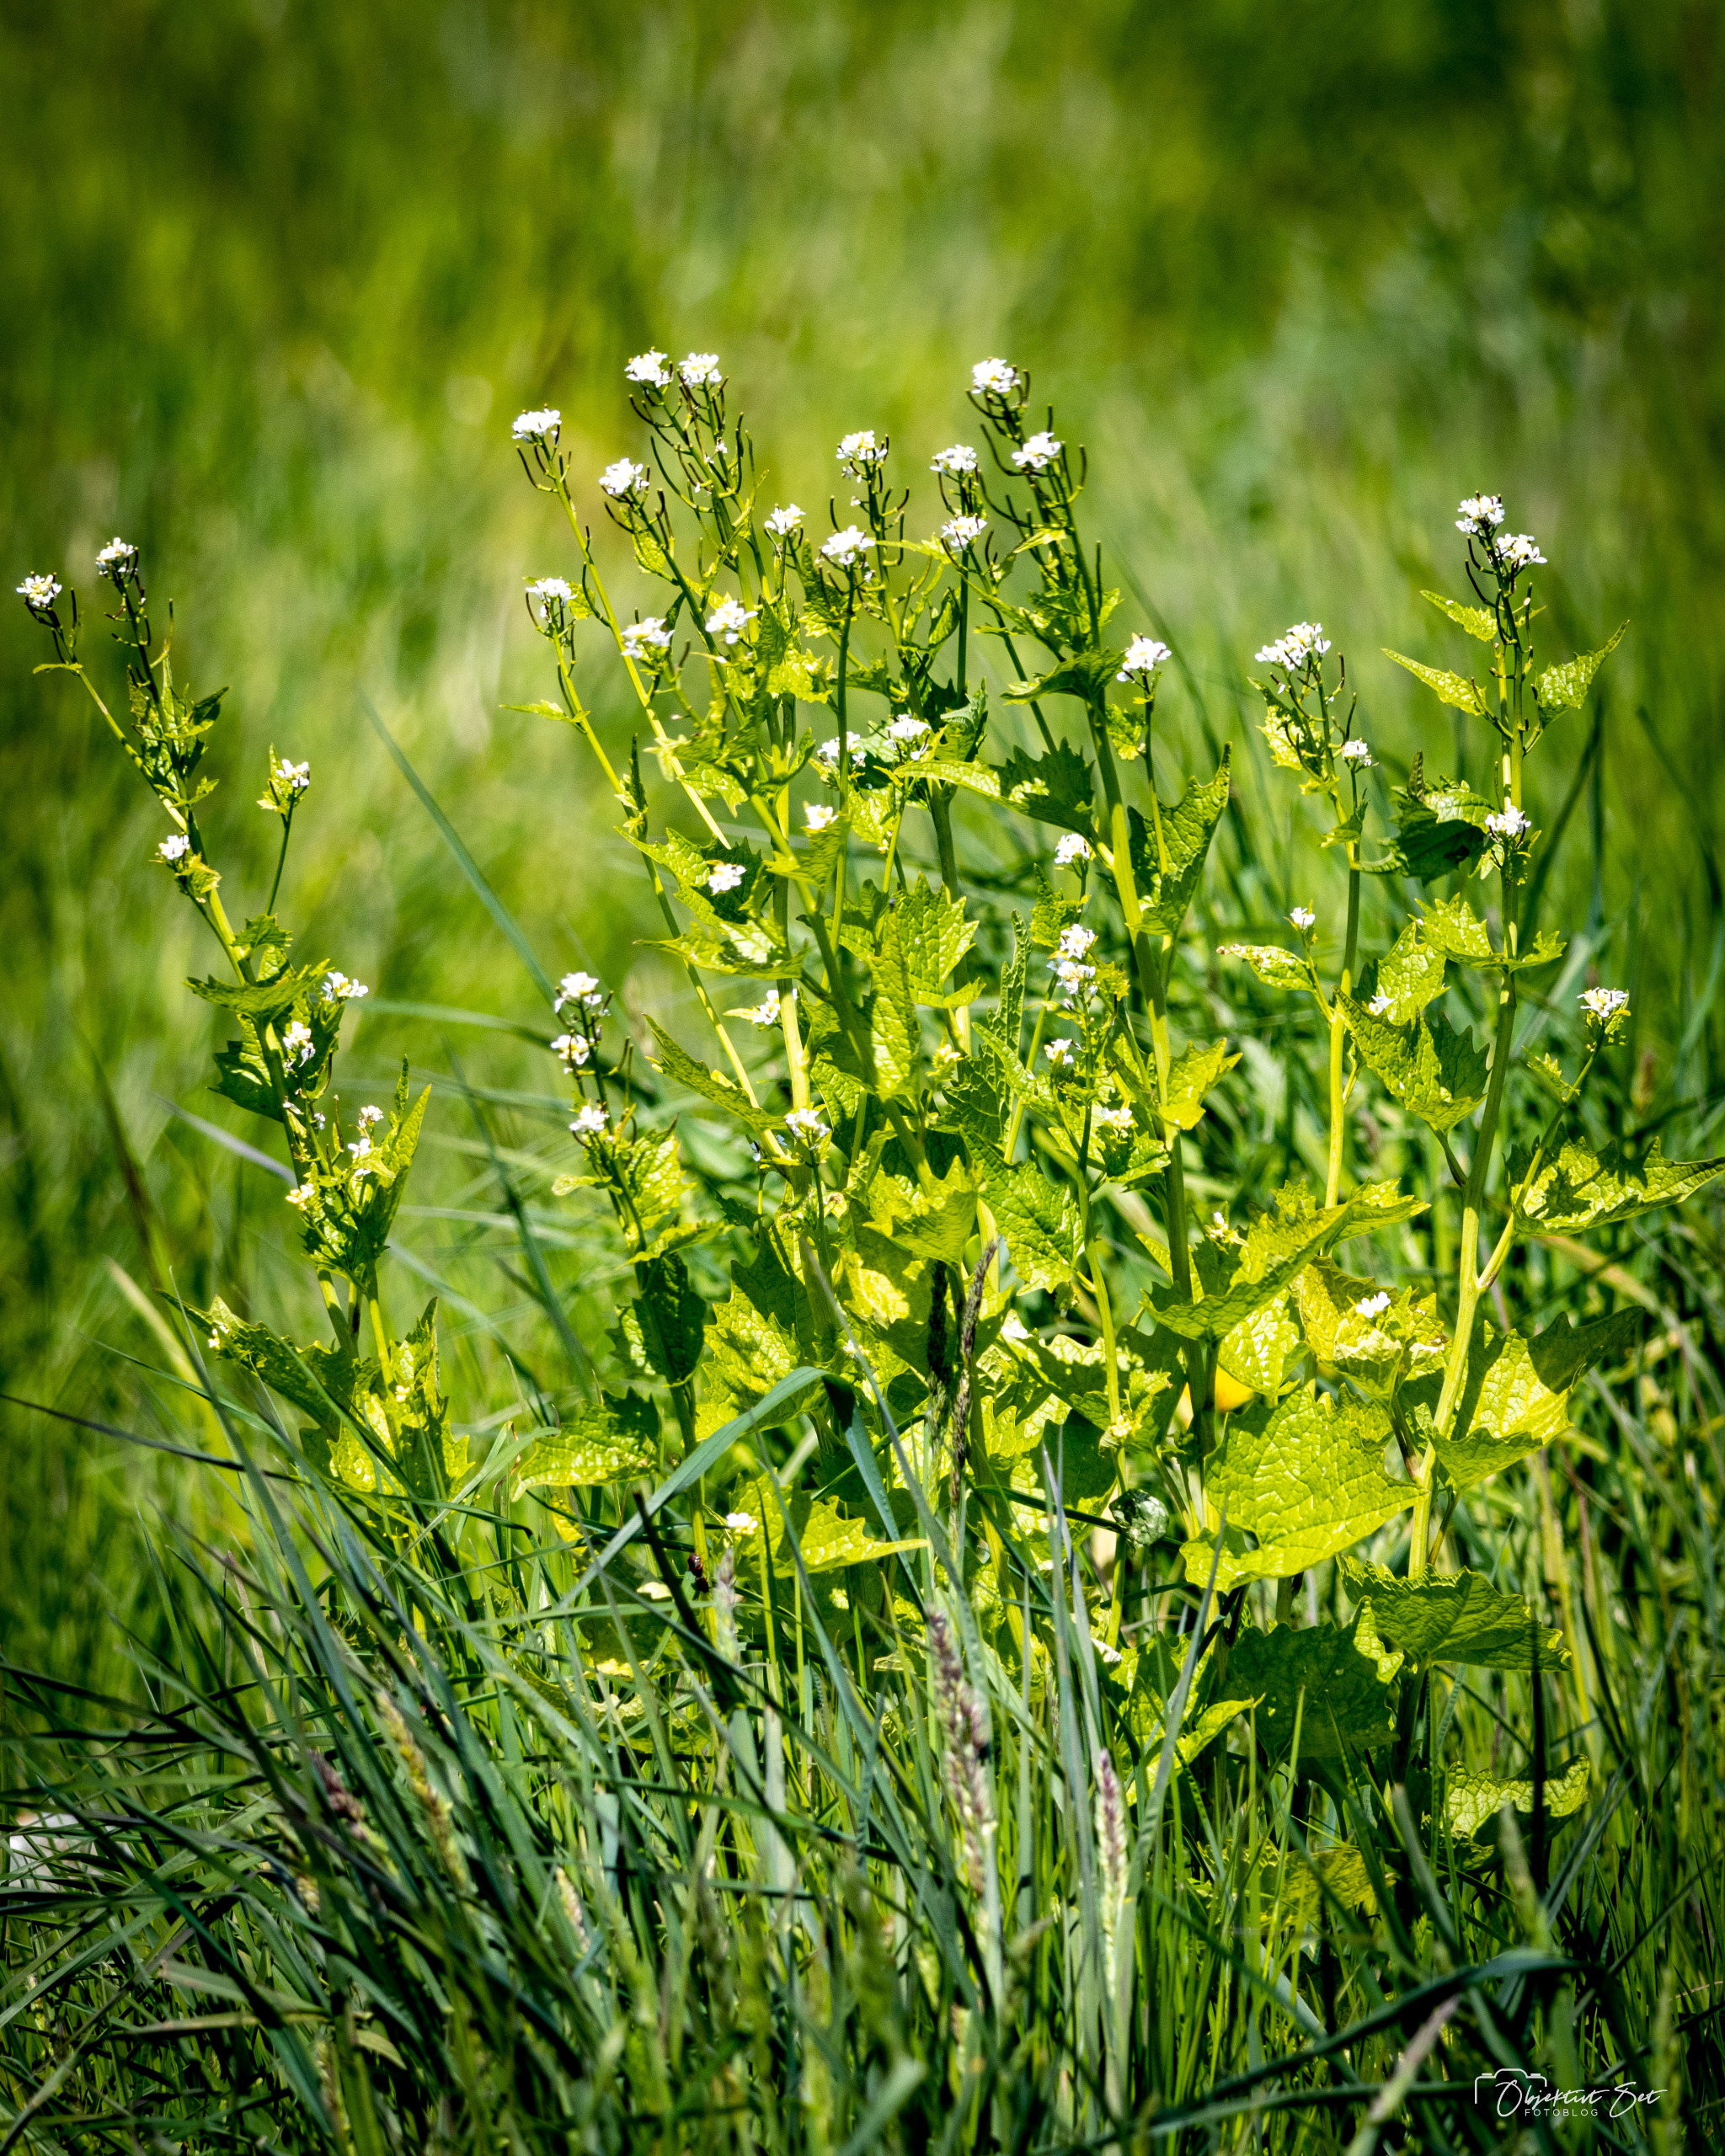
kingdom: Plantae
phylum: Tracheophyta
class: Magnoliopsida
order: Brassicales
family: Brassicaceae
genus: Alliaria
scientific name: Alliaria petiolata
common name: Løgkarse
